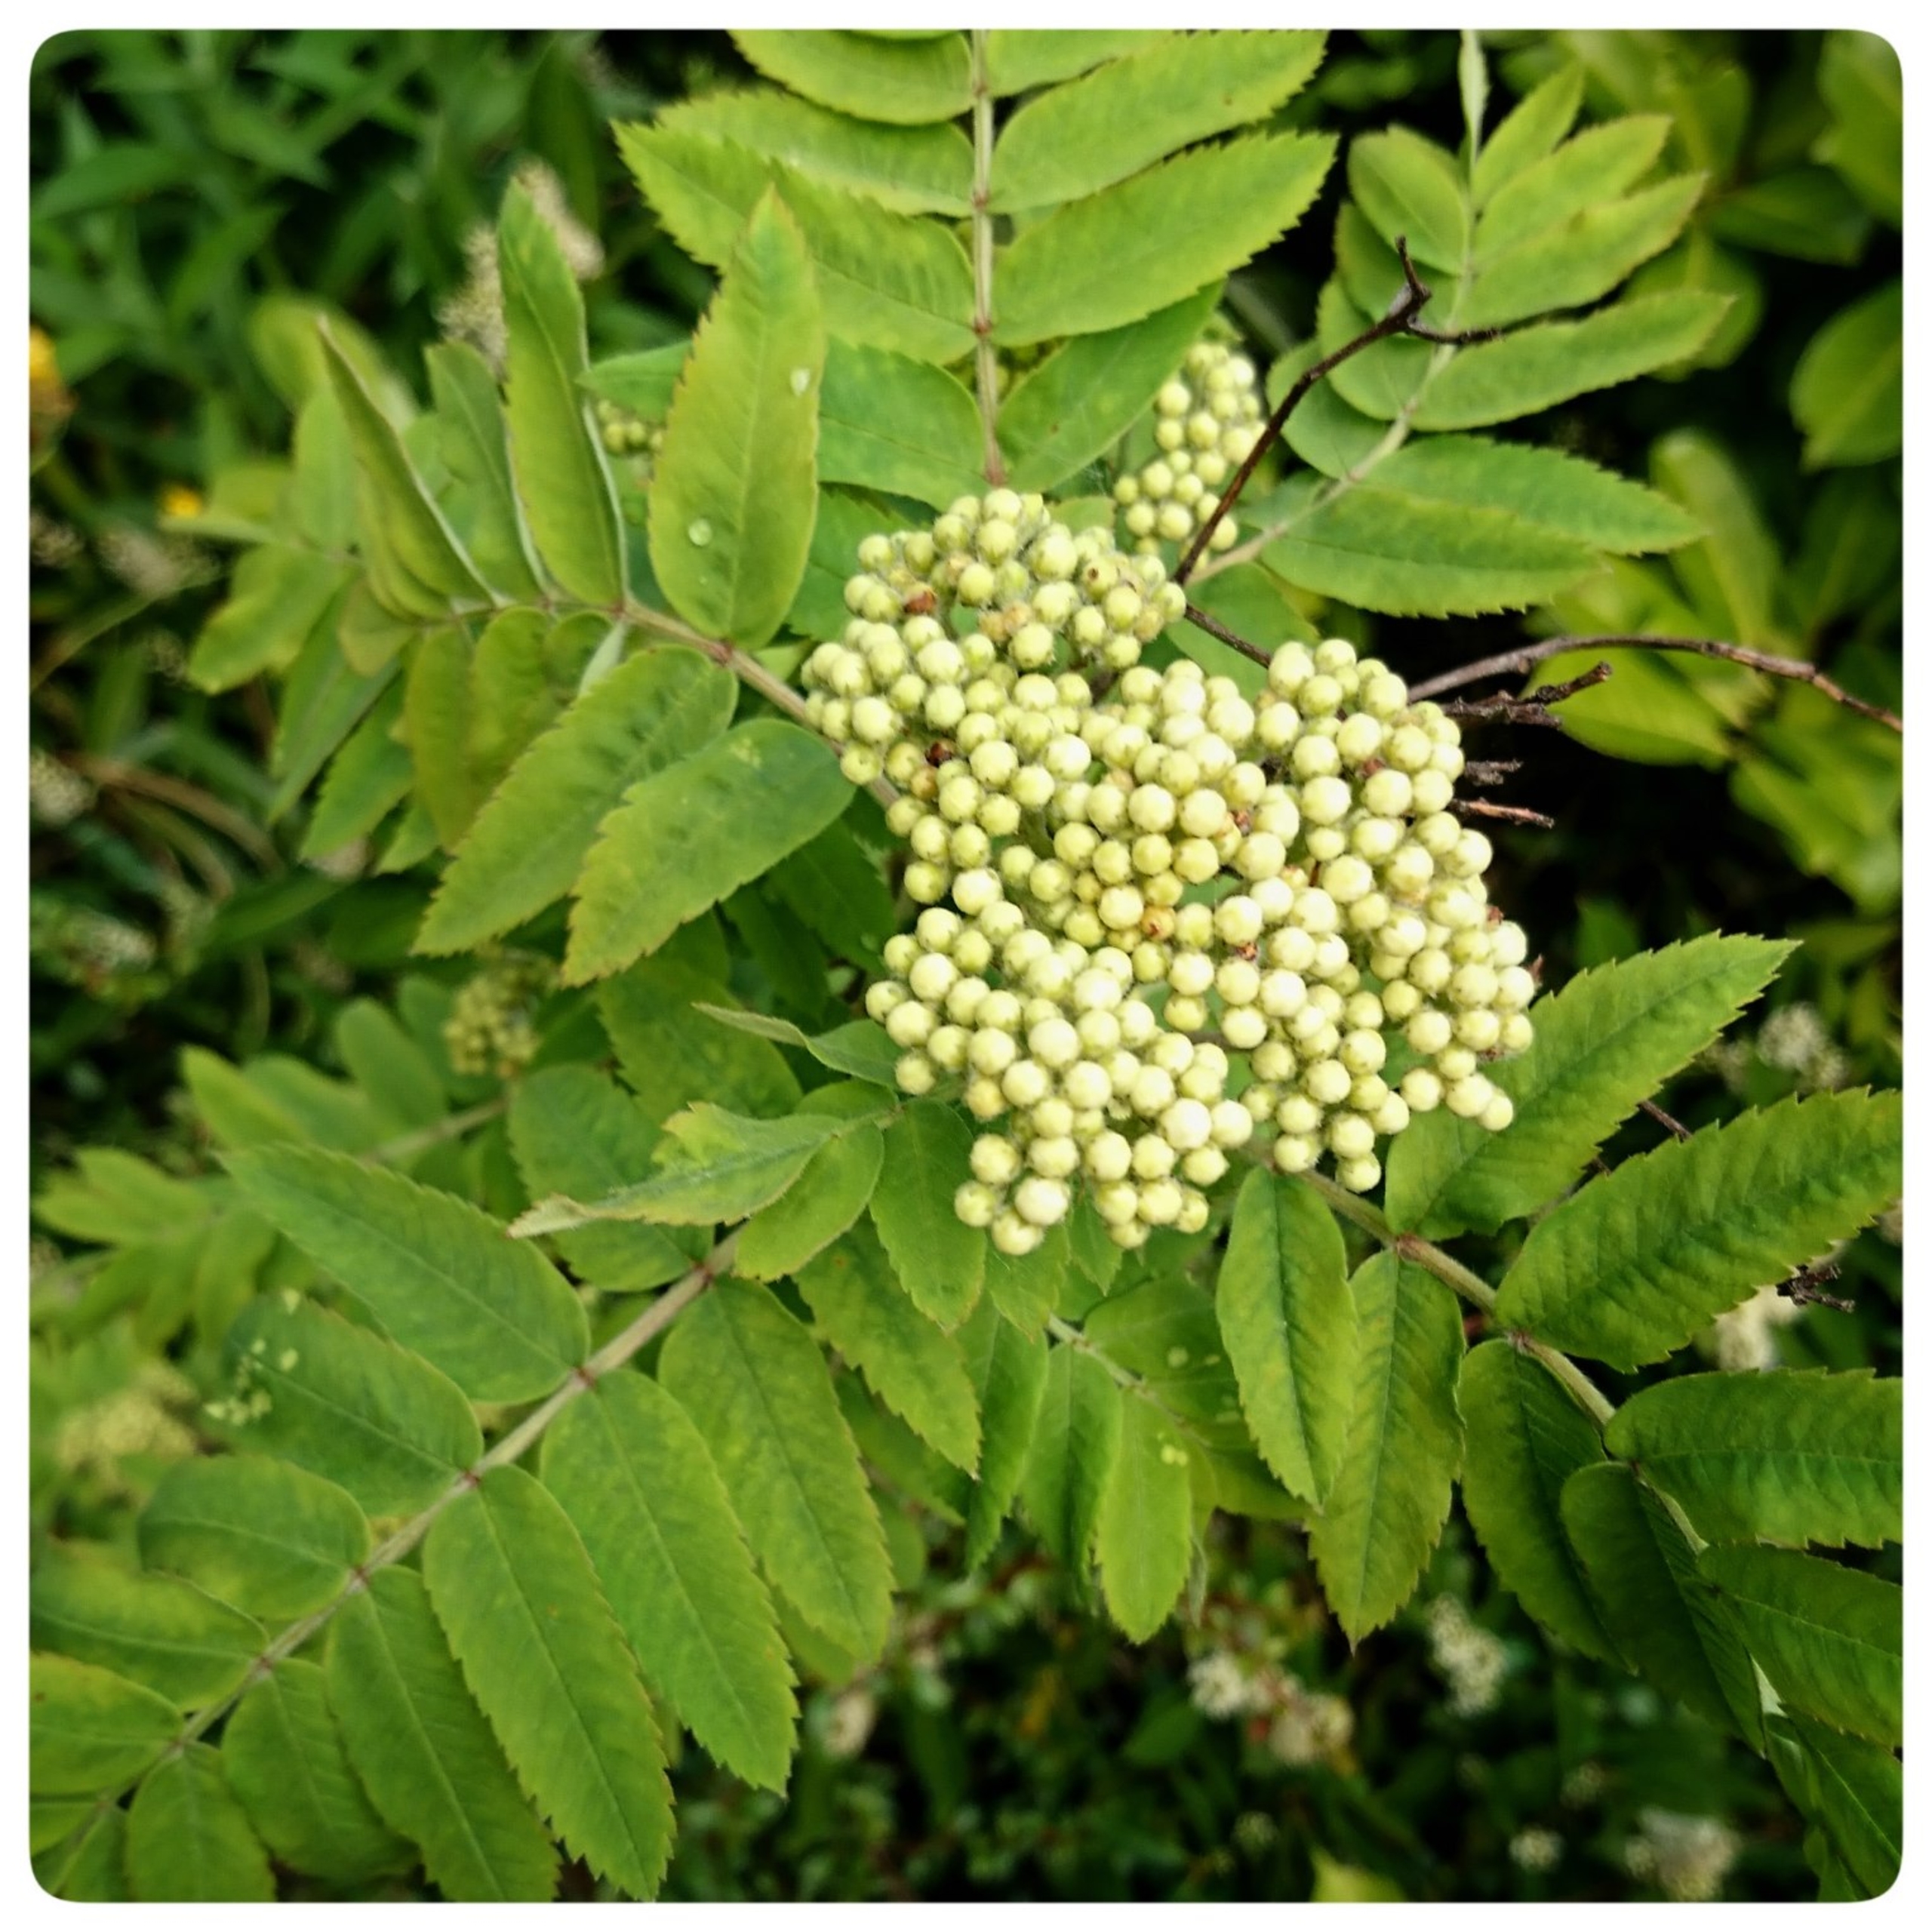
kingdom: Plantae
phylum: Tracheophyta
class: Magnoliopsida
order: Rosales
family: Rosaceae
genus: Sorbus
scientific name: Sorbus aucuparia
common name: Almindelig røn
